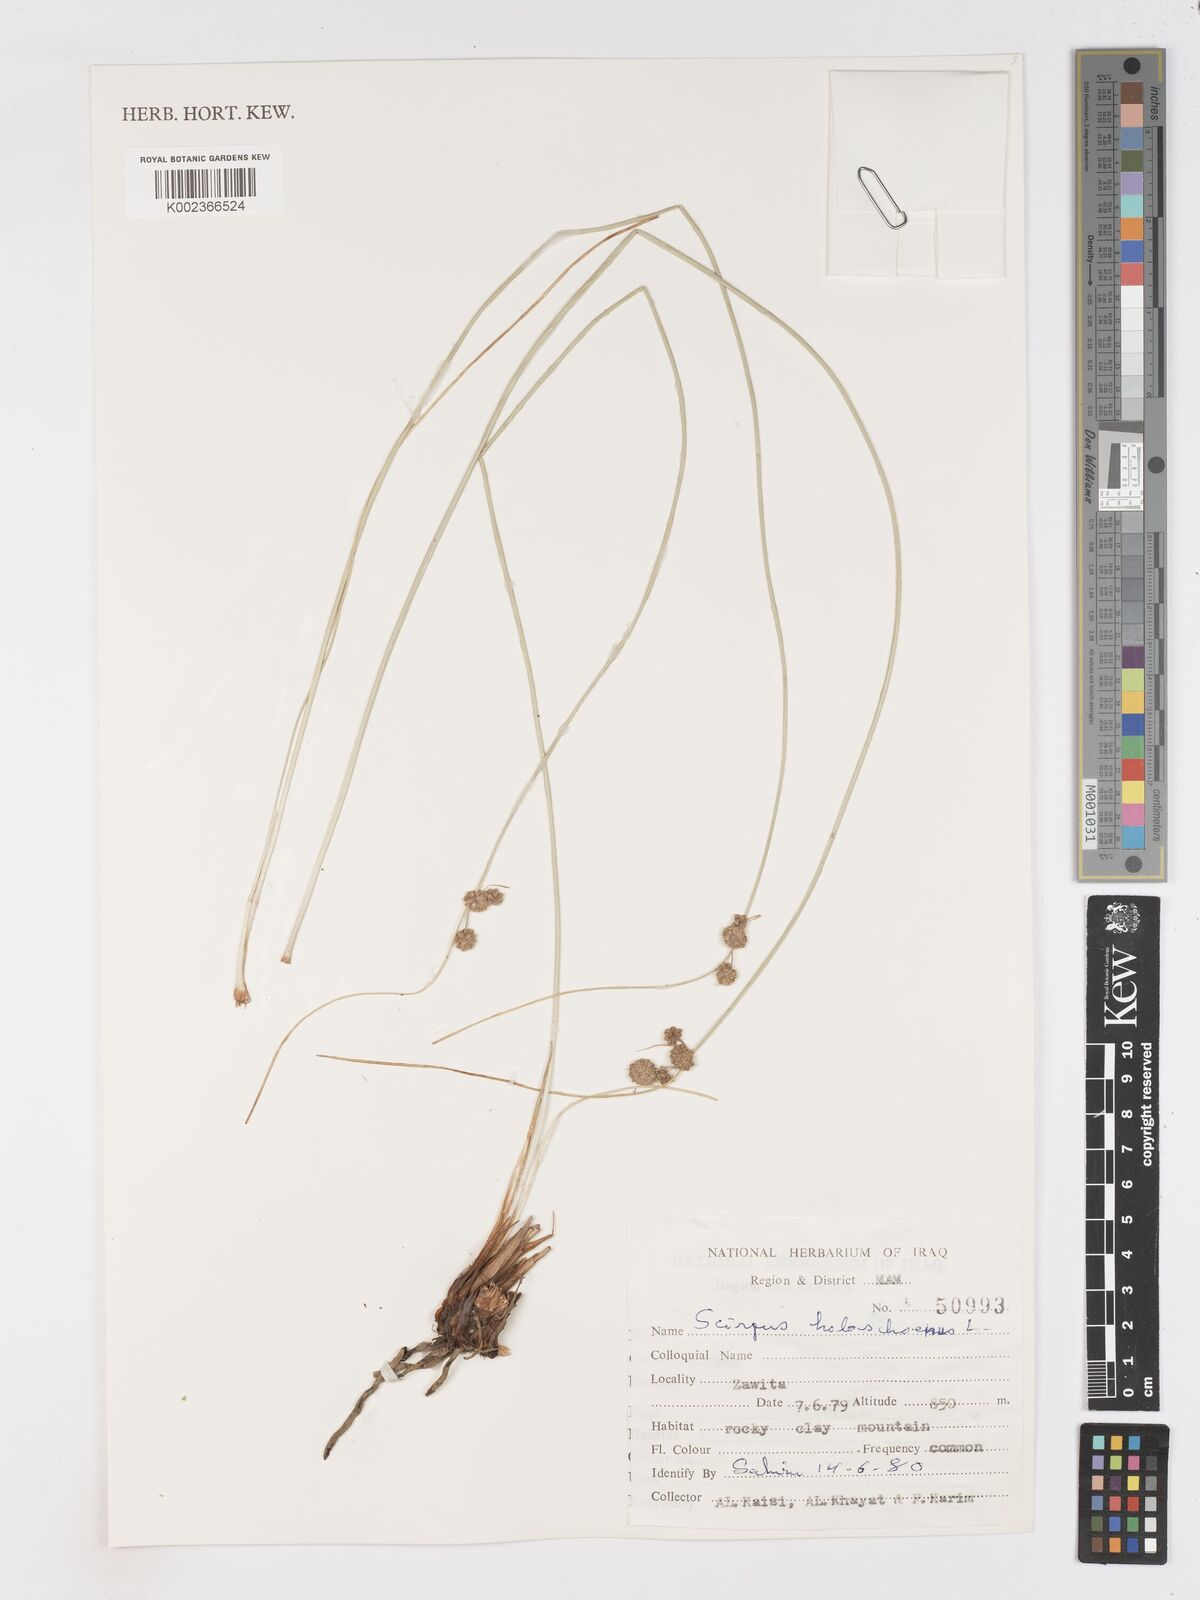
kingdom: Plantae
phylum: Tracheophyta
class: Liliopsida
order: Poales
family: Cyperaceae
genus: Scirpoides
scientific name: Scirpoides holoschoenus
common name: Round-headed club-rush
